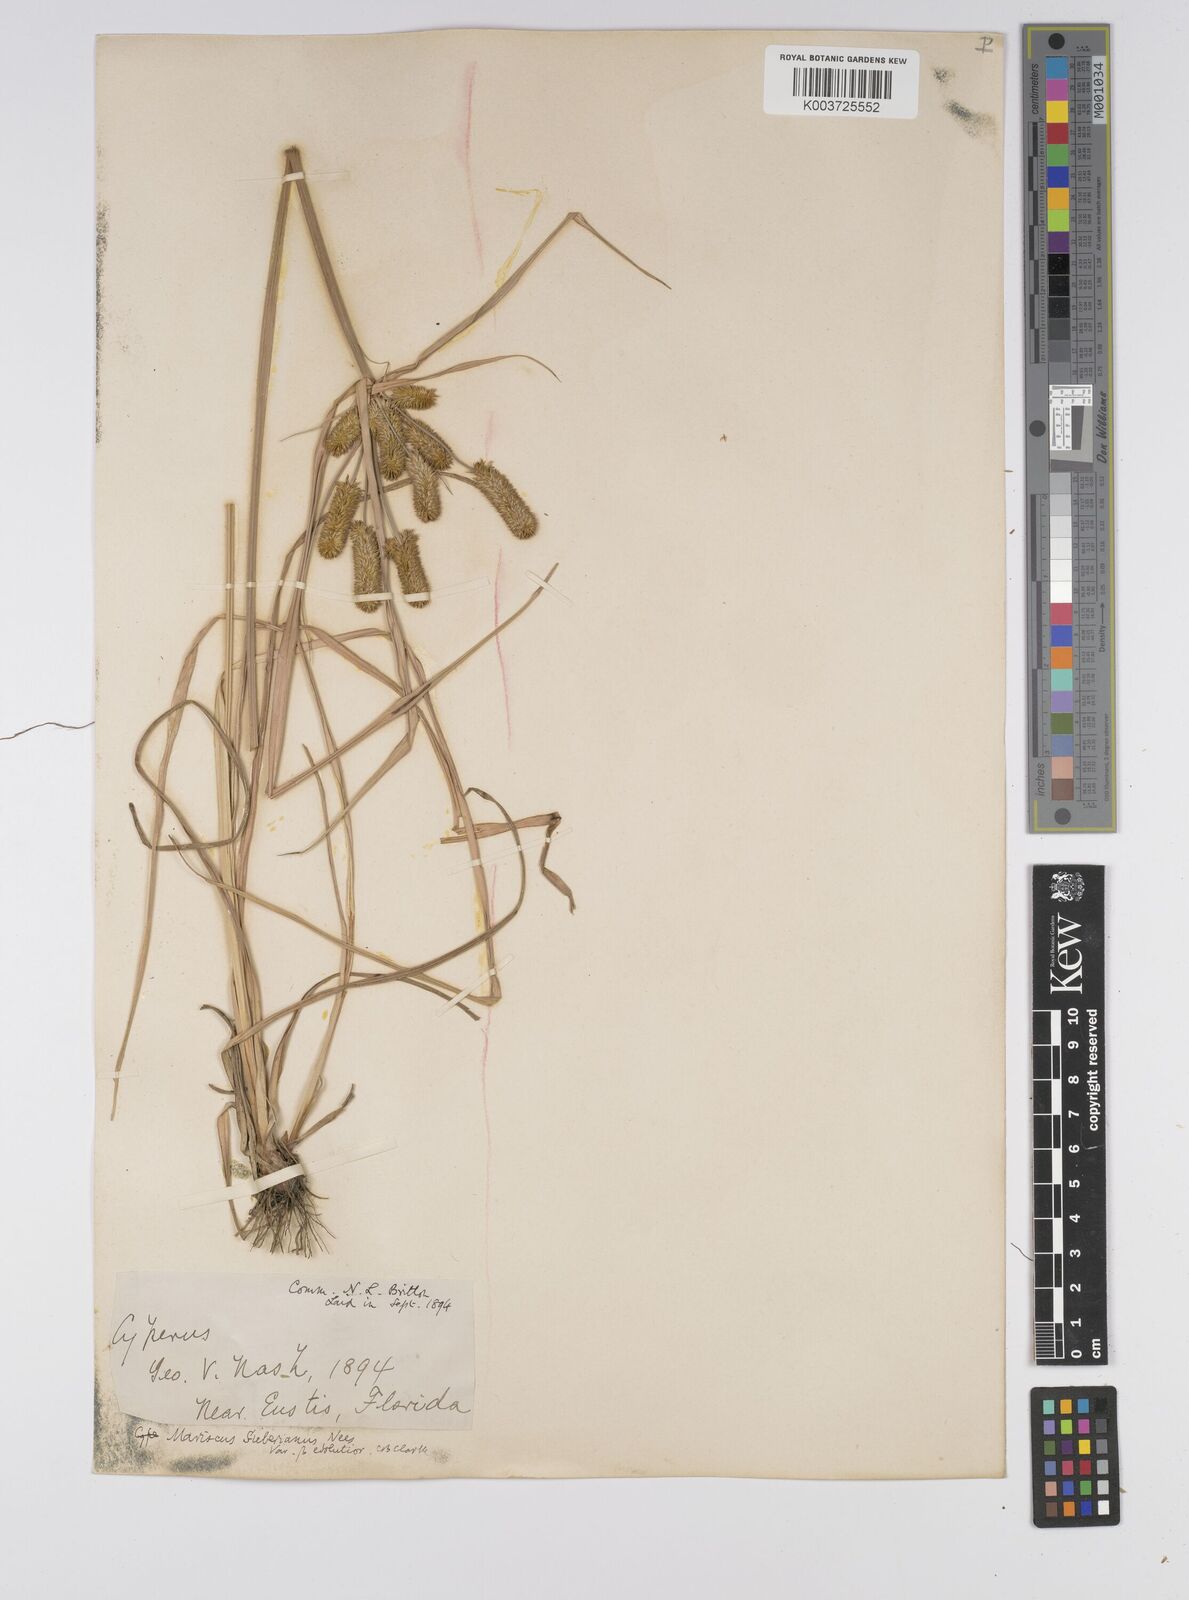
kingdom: Plantae
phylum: Tracheophyta
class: Liliopsida
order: Poales
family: Cyperaceae
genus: Cyperus
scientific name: Cyperus cyperoides
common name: Pacific island flat sedge
